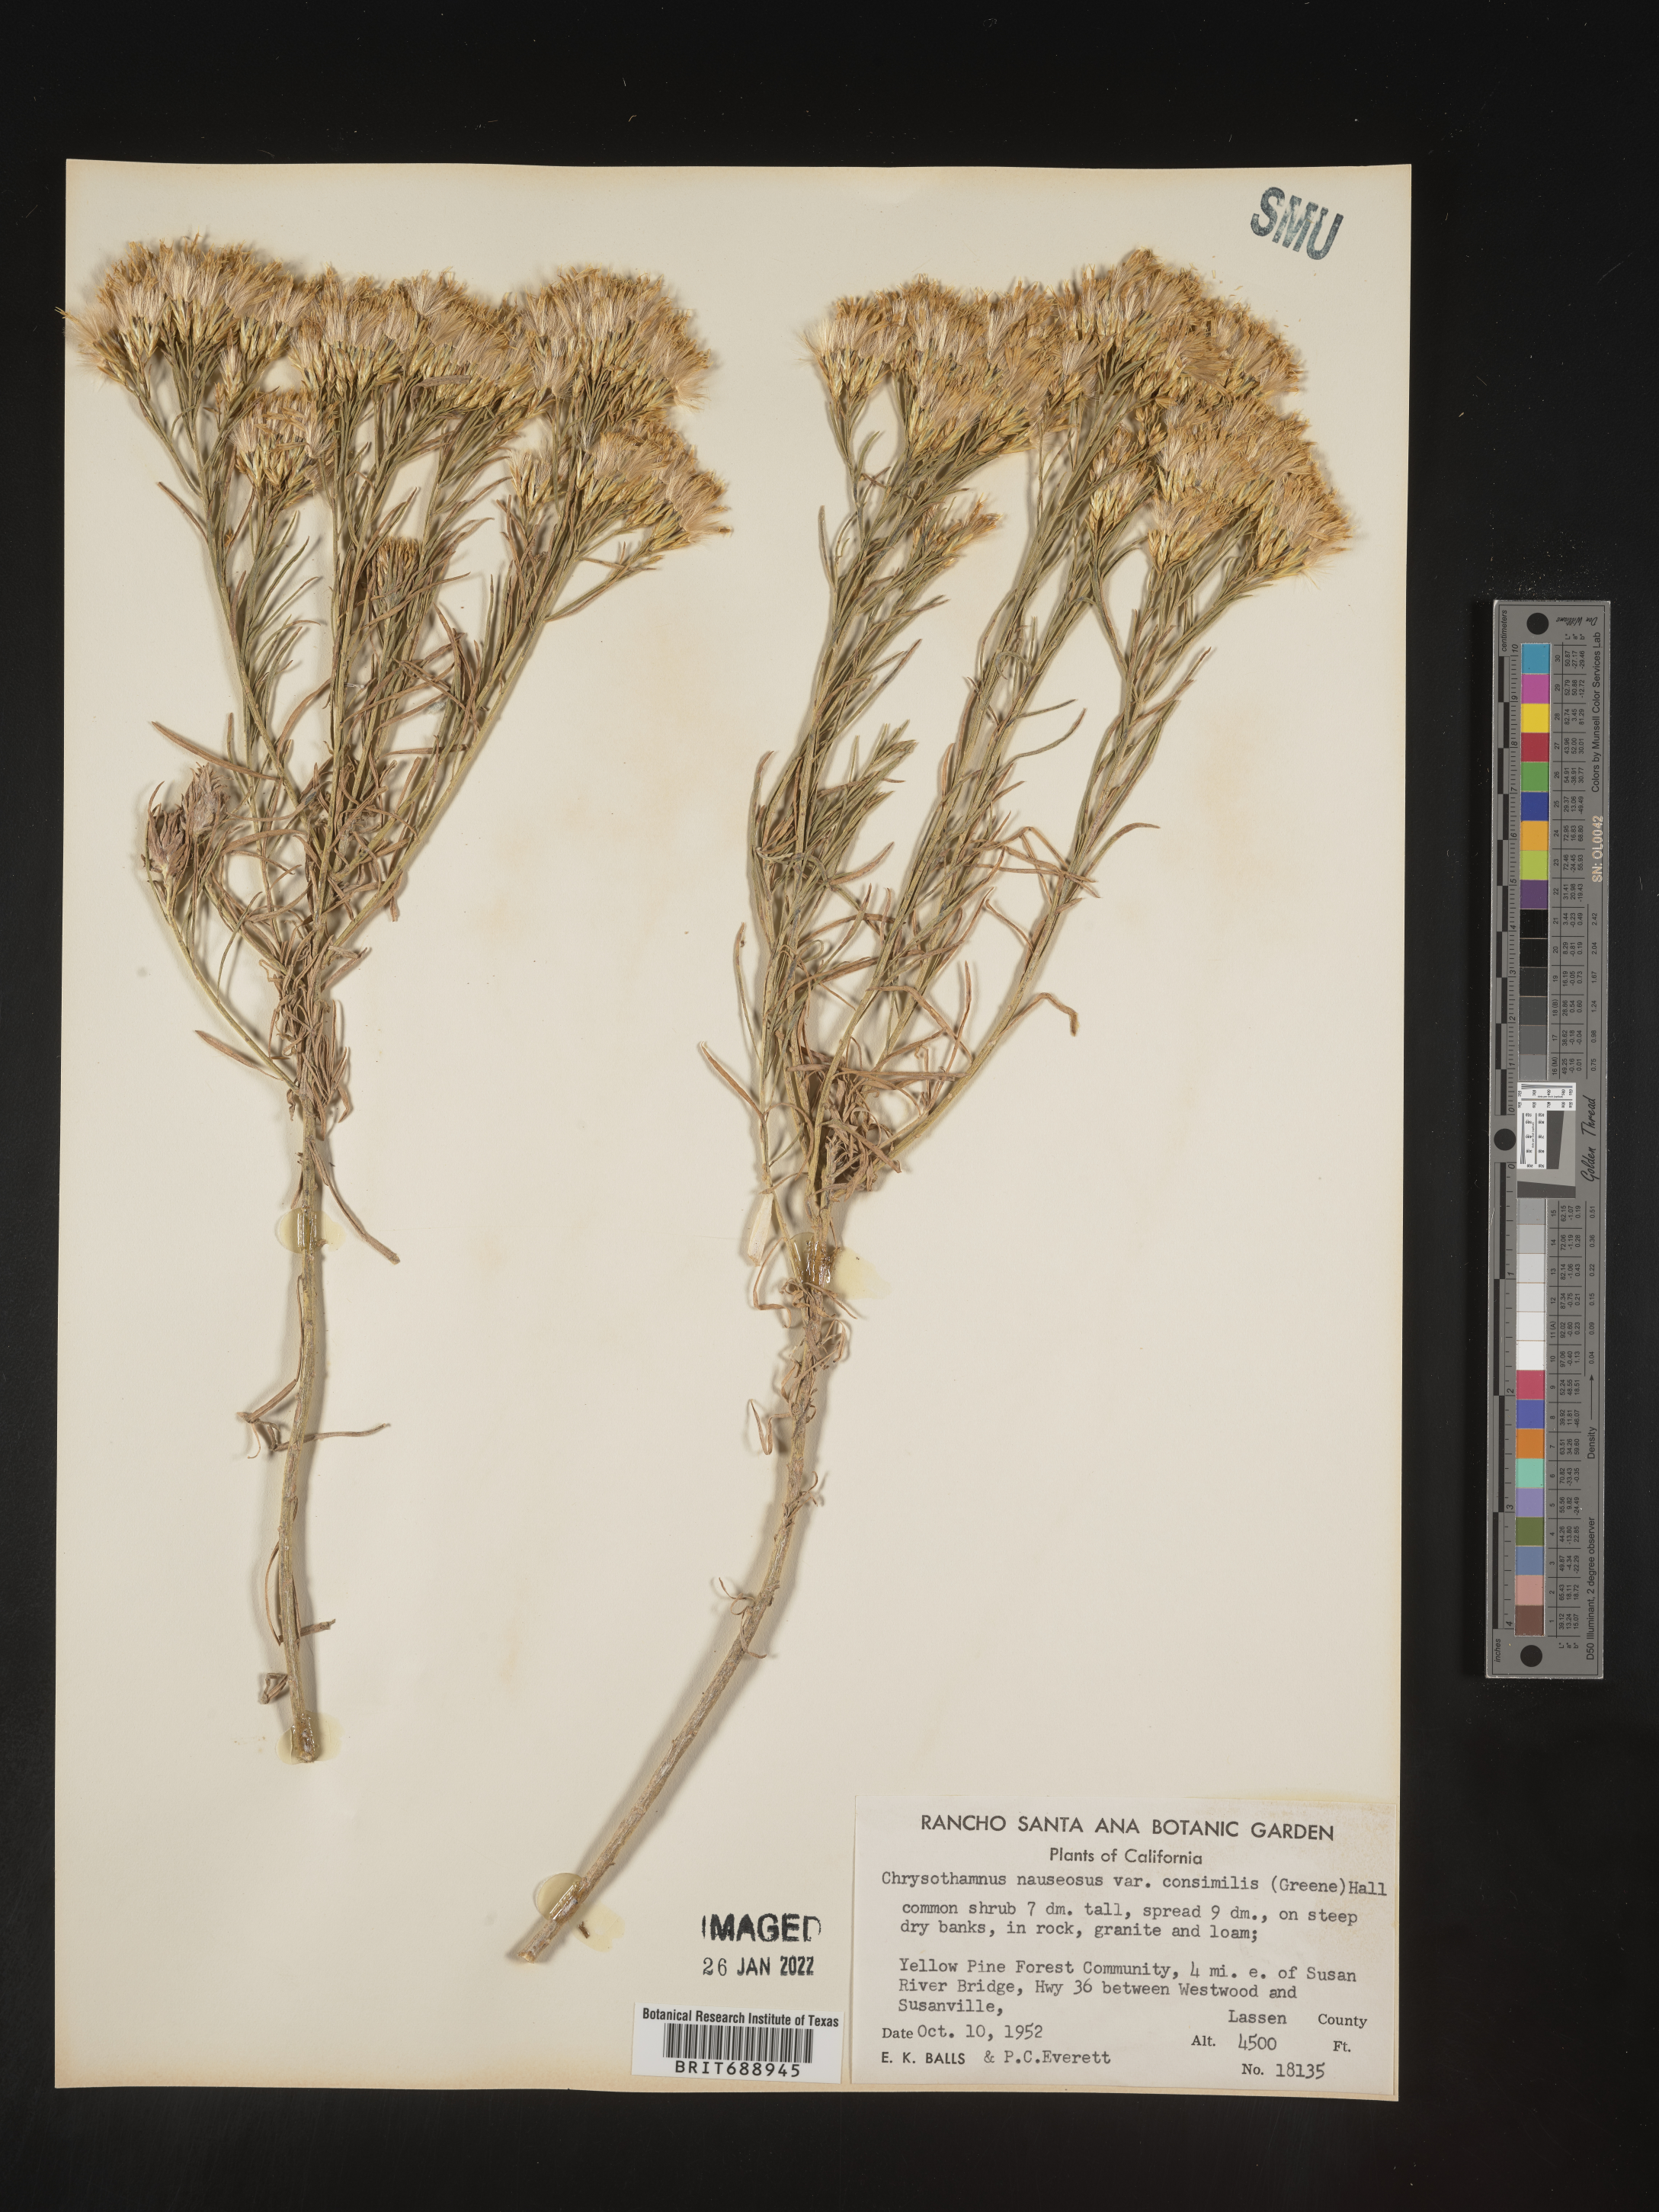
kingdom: Plantae
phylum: Tracheophyta
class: Magnoliopsida
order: Asterales
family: Asteraceae
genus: Ericameria
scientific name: Ericameria nauseosa
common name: Rubber rabbitbrush
